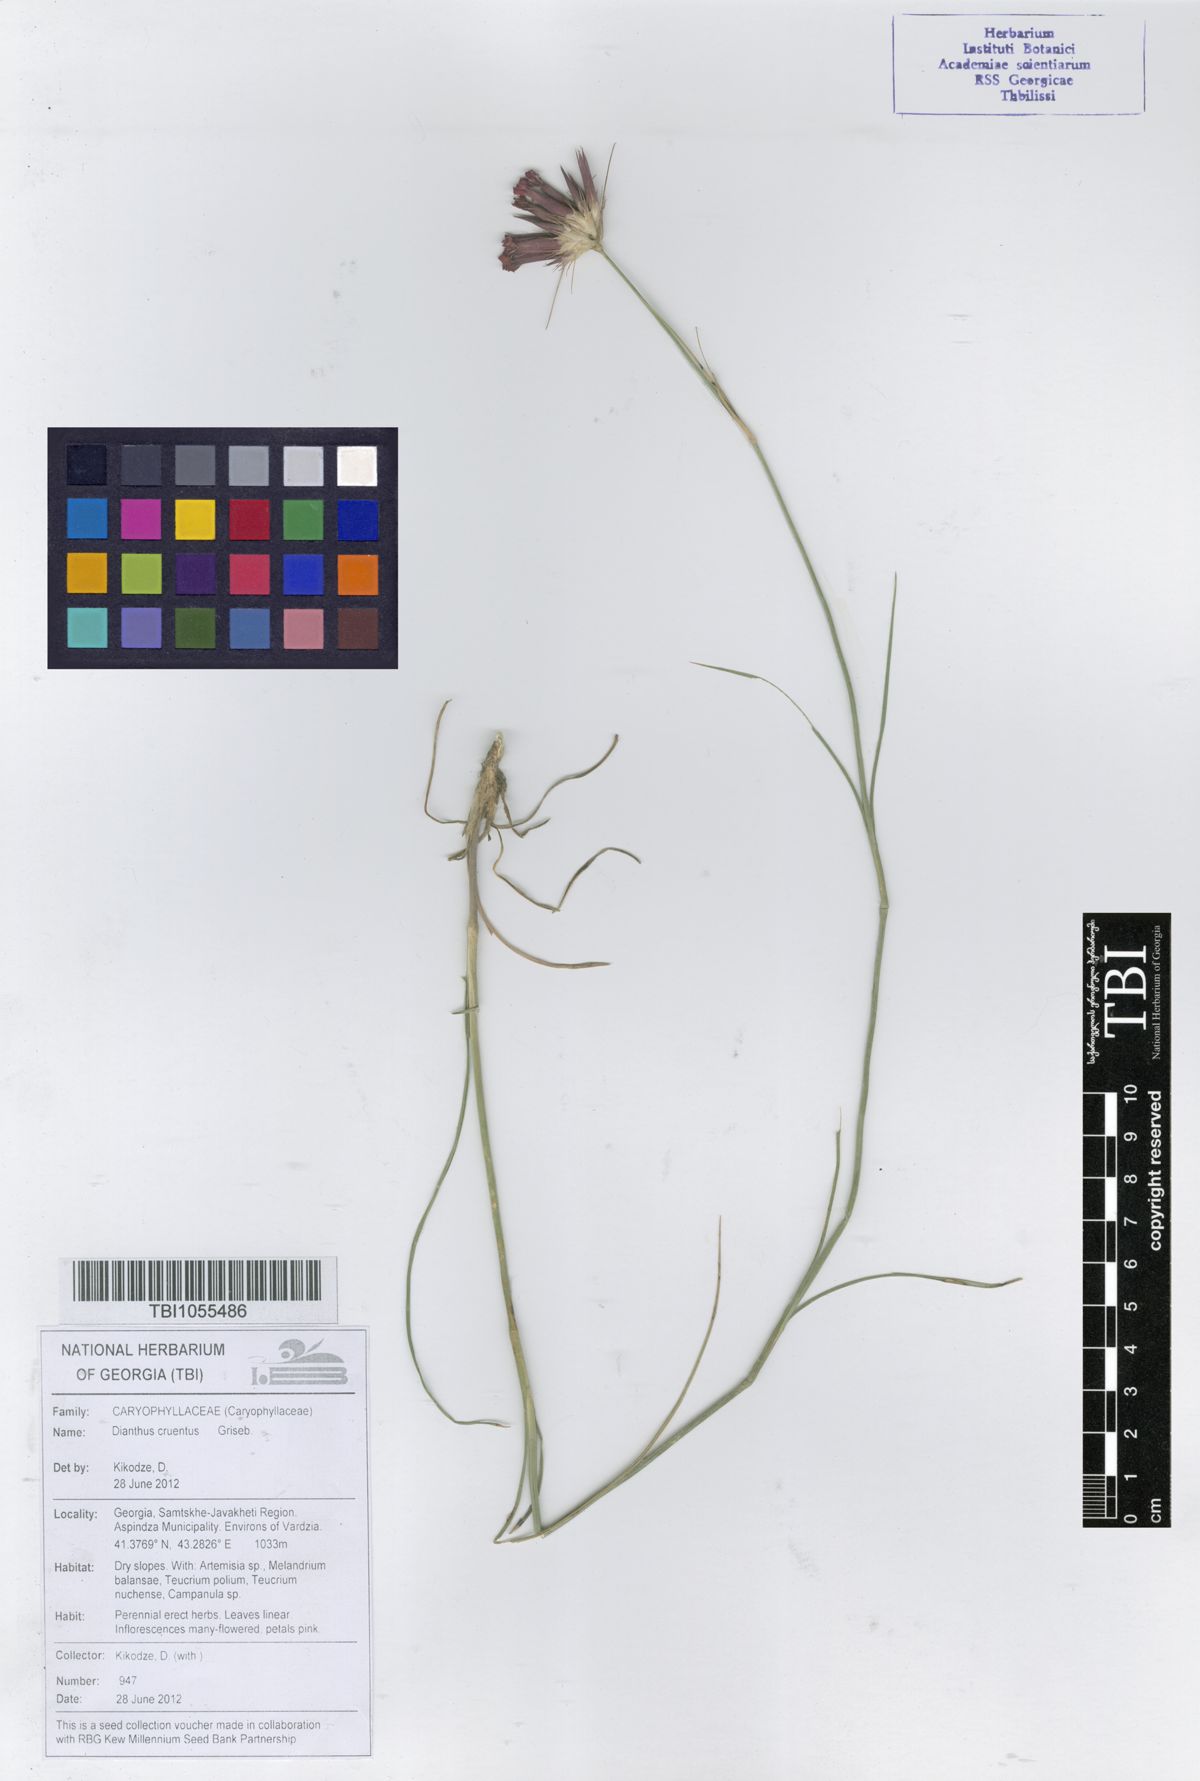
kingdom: Plantae
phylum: Tracheophyta
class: Magnoliopsida
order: Caryophyllales
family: Caryophyllaceae
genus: Dianthus
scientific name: Dianthus cruentus
